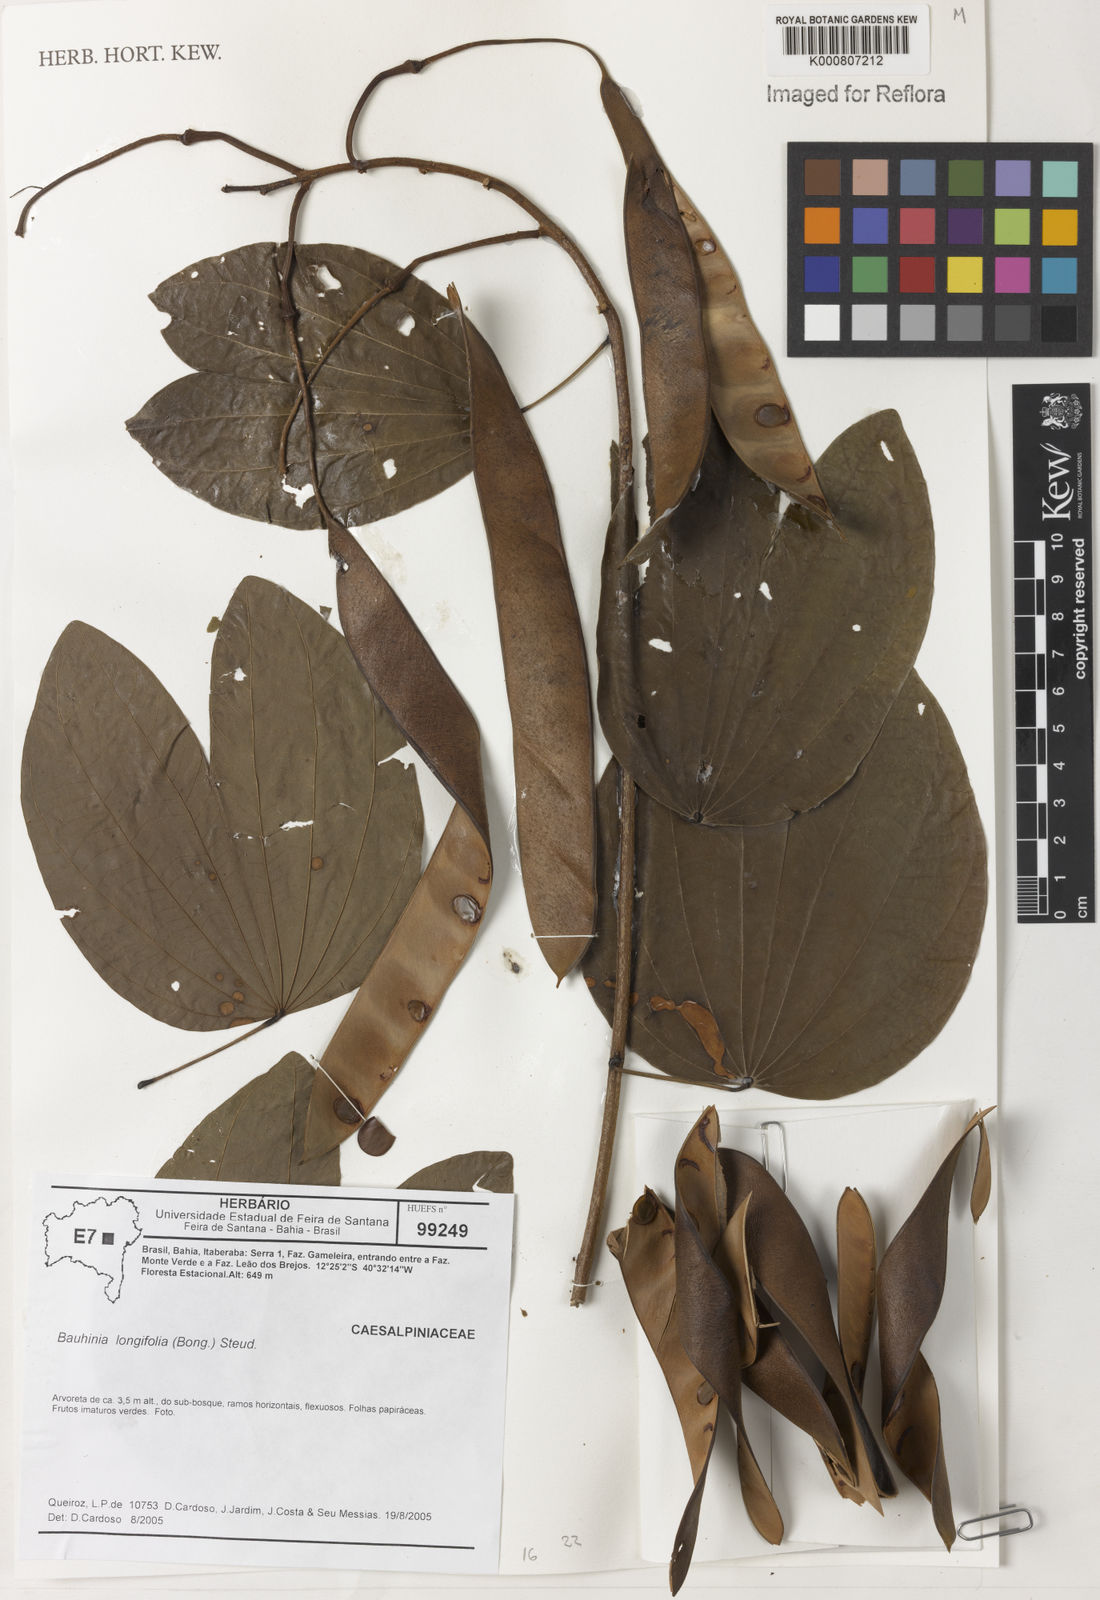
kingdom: Plantae
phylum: Tracheophyta
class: Magnoliopsida
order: Fabales
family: Fabaceae
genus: Bauhinia
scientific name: Bauhinia longifolia
